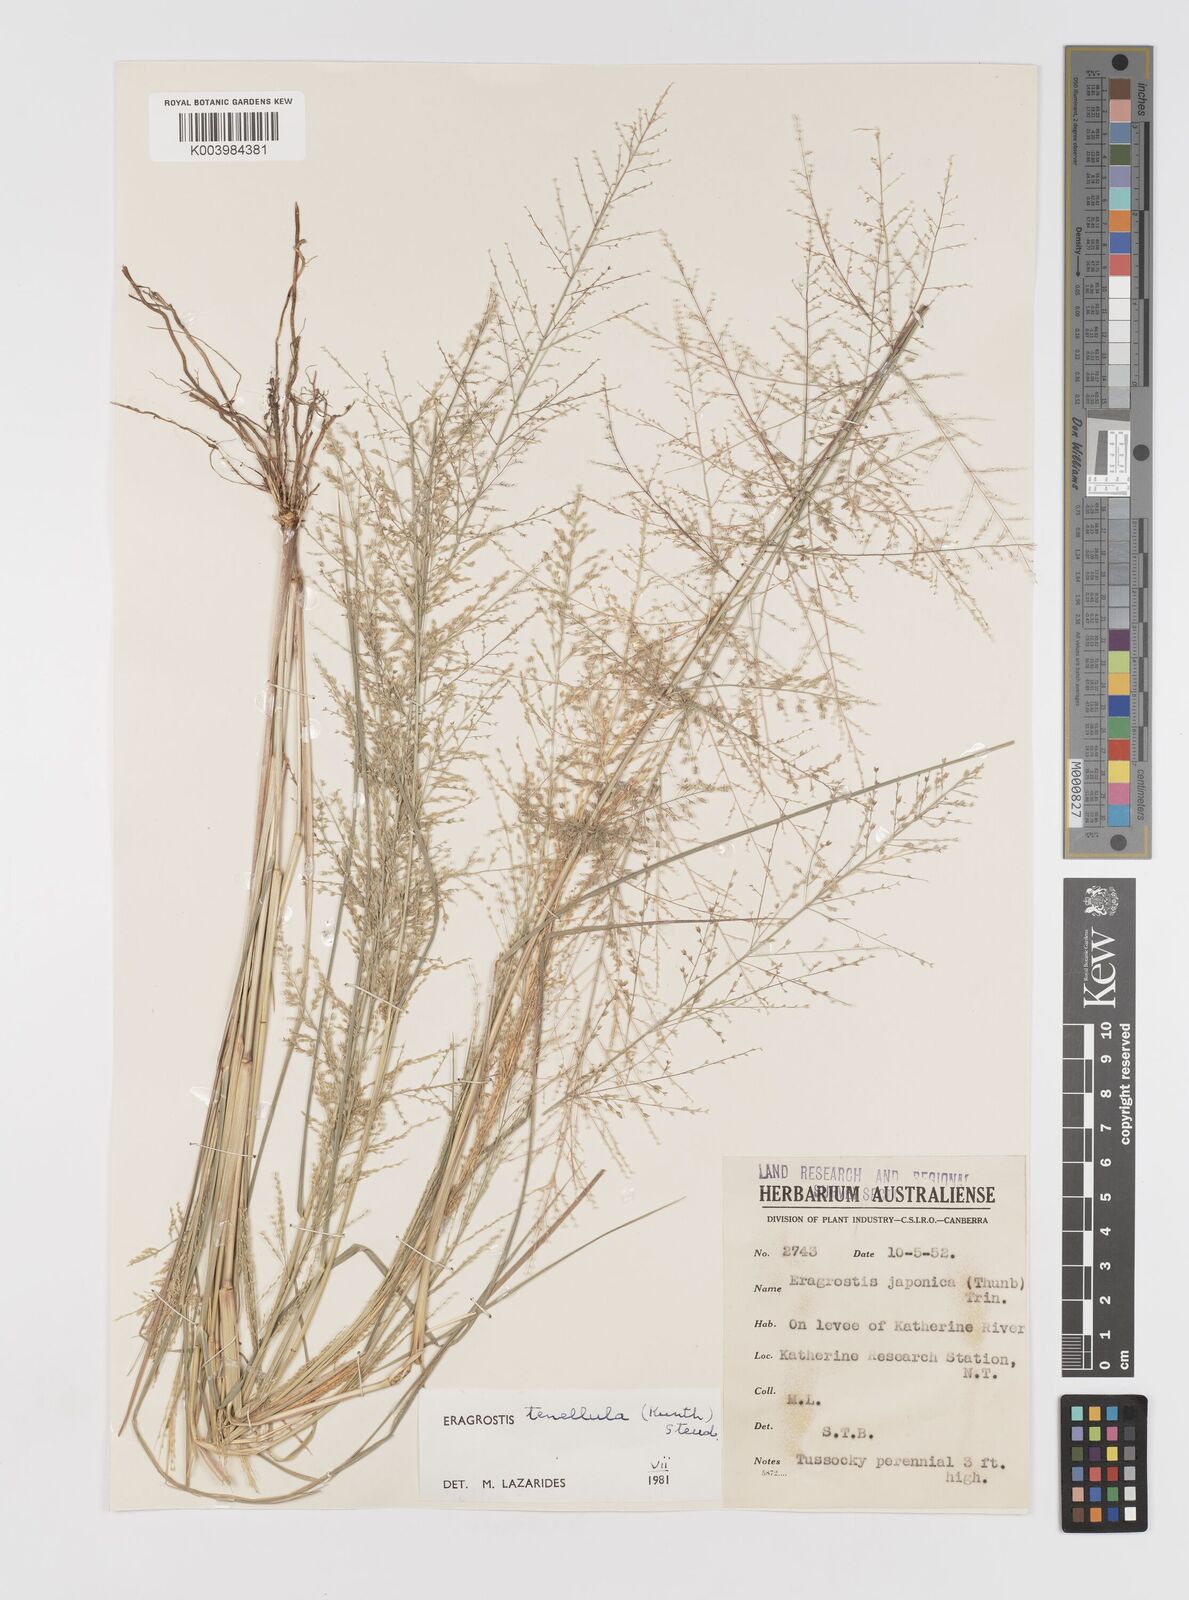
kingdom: Plantae
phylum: Tracheophyta
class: Liliopsida
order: Poales
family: Poaceae
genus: Eragrostis
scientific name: Eragrostis tenellula
